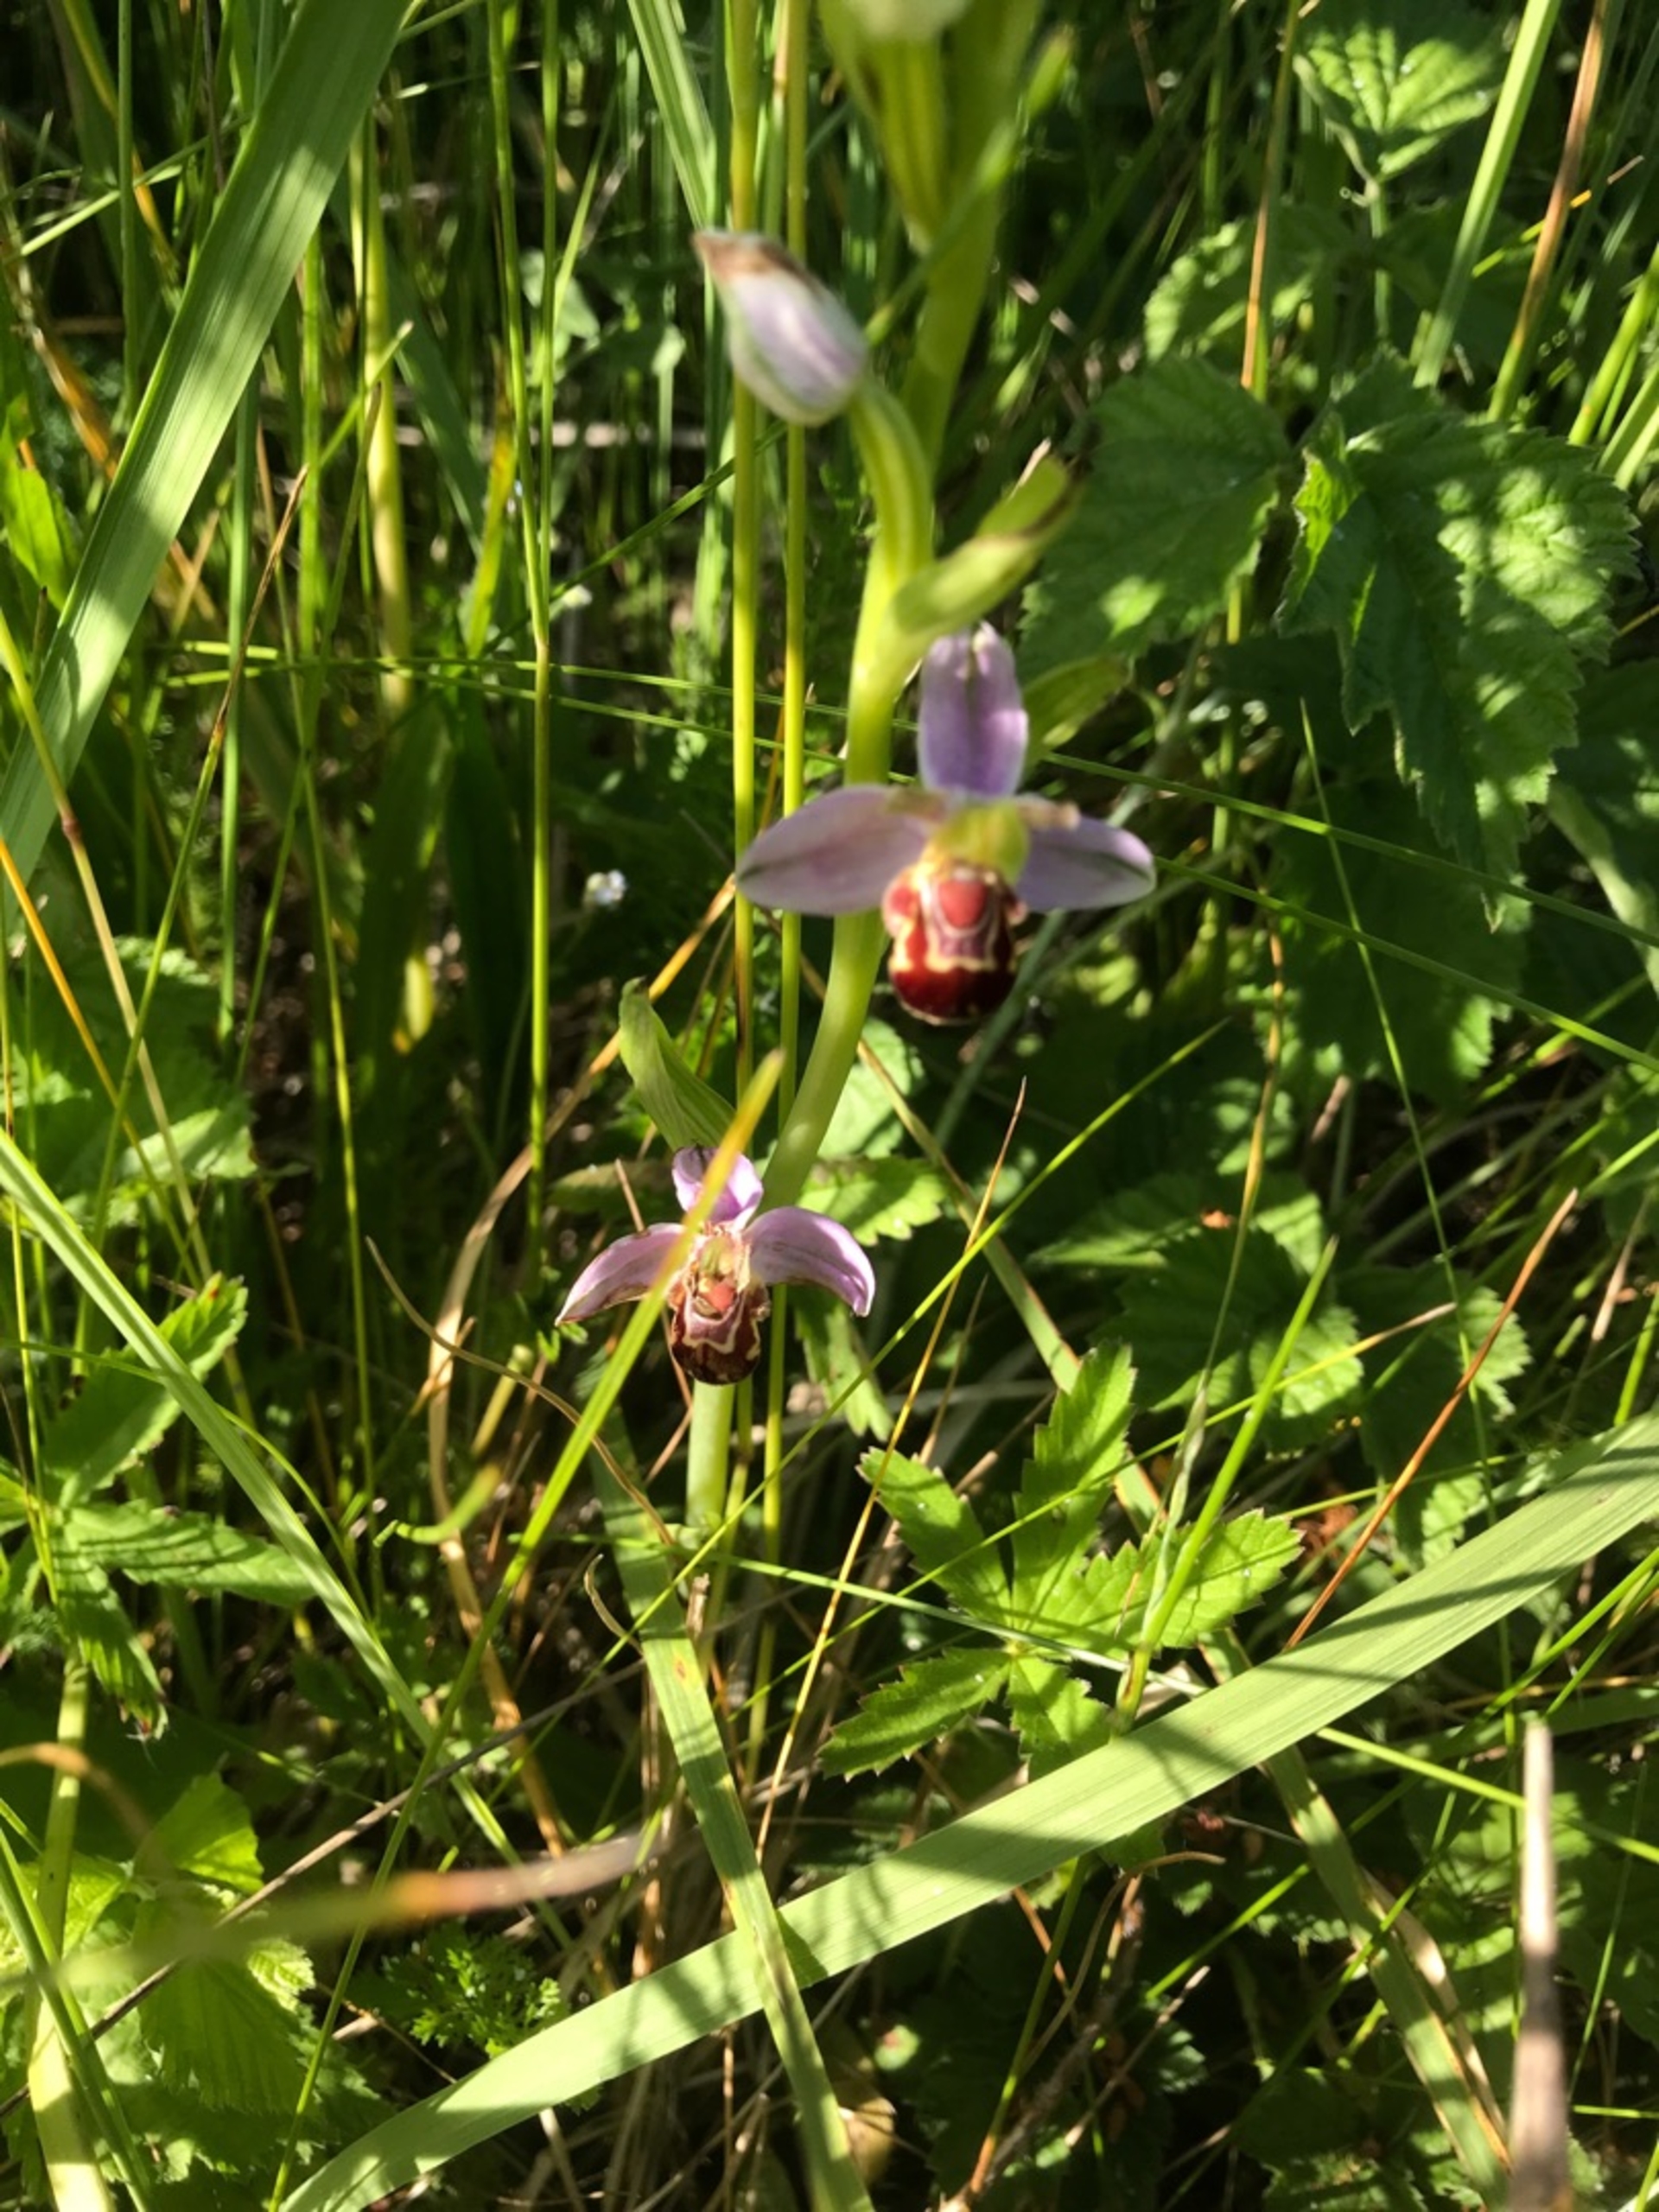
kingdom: Plantae
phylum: Tracheophyta
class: Liliopsida
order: Asparagales
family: Orchidaceae
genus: Ophrys
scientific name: Ophrys apifera
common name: Biblomst
